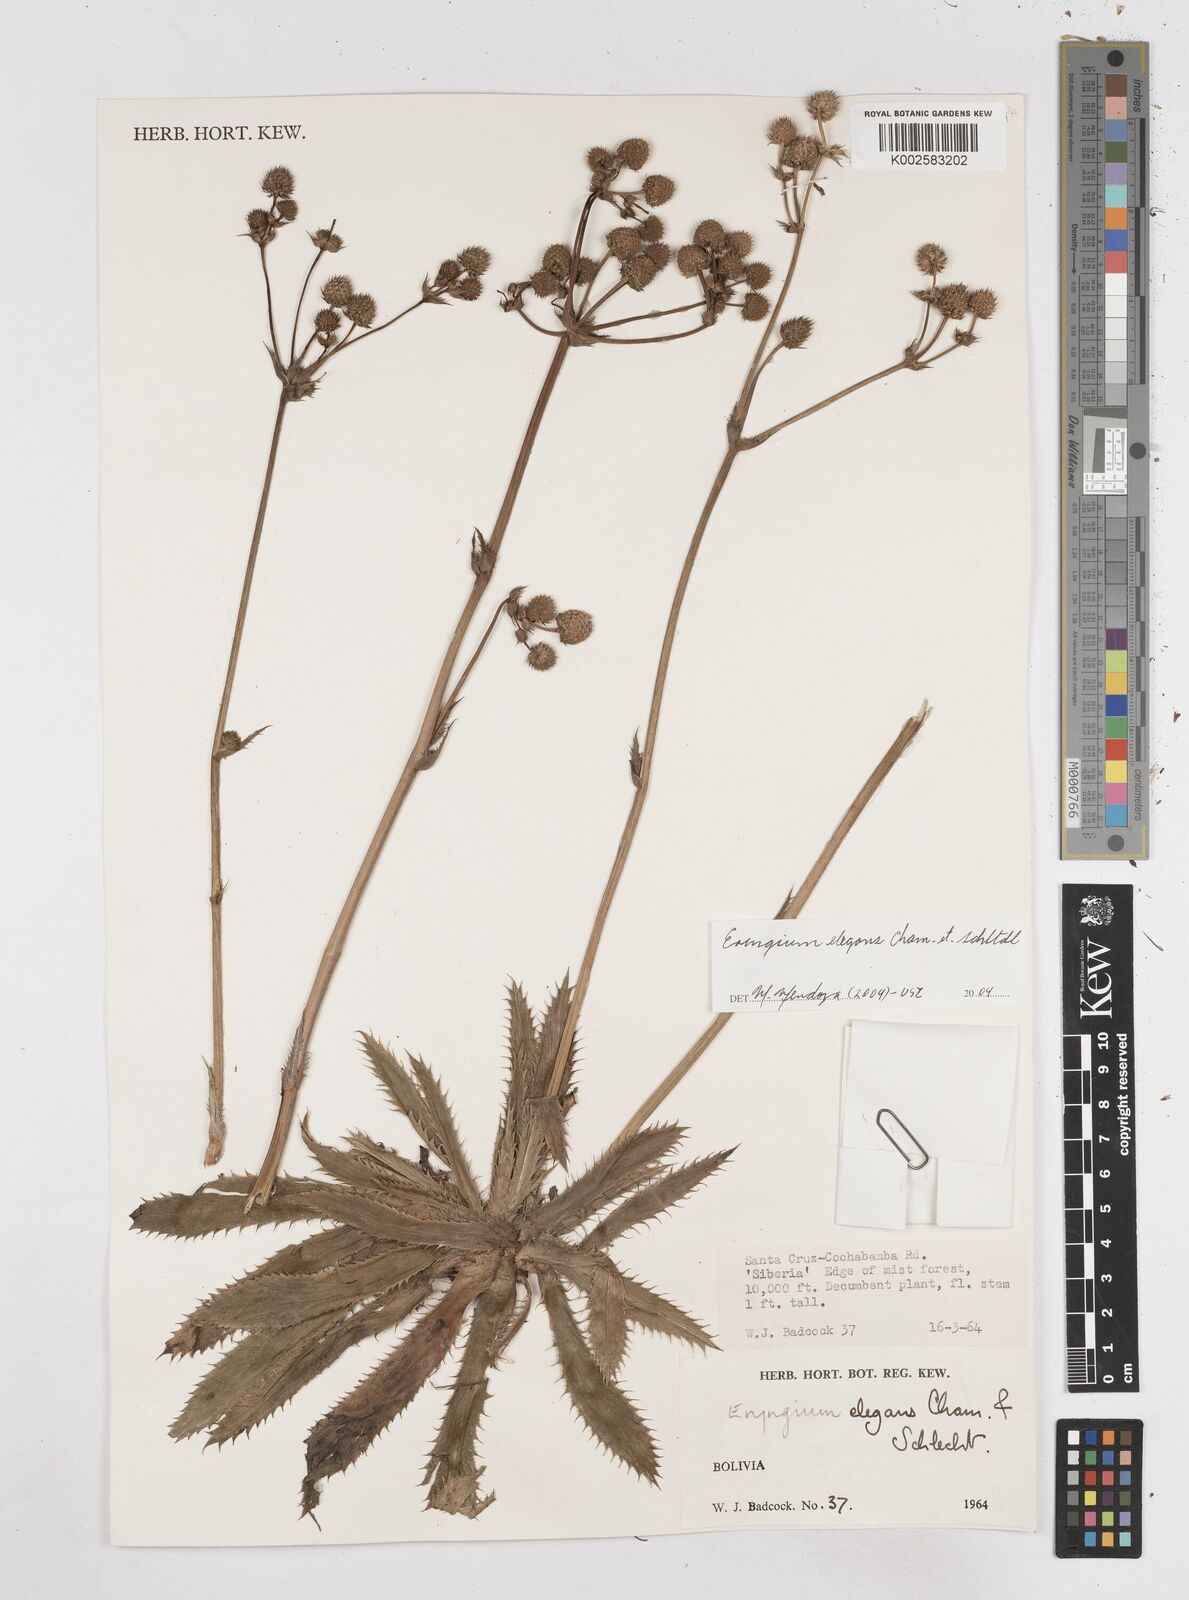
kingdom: Plantae
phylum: Tracheophyta
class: Magnoliopsida
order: Apiales
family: Apiaceae
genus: Eryngium
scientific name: Eryngium elegans
